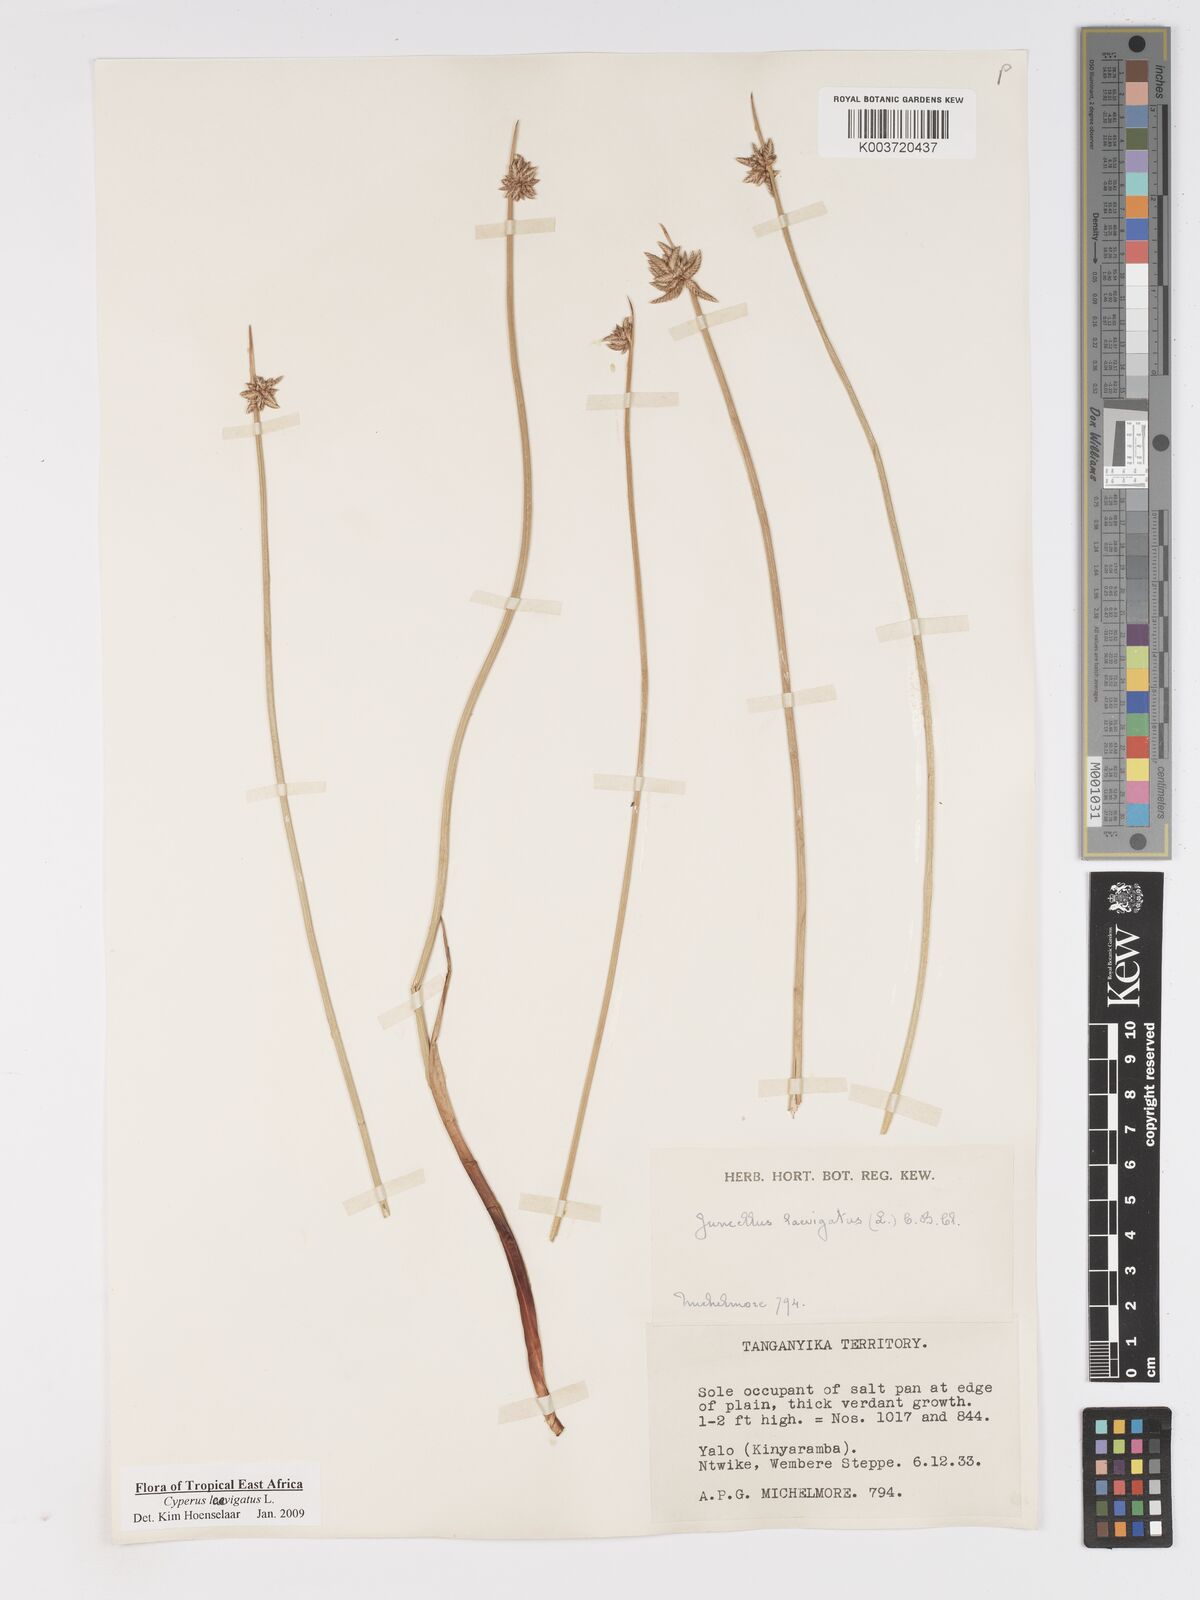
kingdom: Plantae
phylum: Tracheophyta
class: Liliopsida
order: Poales
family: Cyperaceae
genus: Cyperus
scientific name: Cyperus laevigatus
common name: Smooth flat sedge
